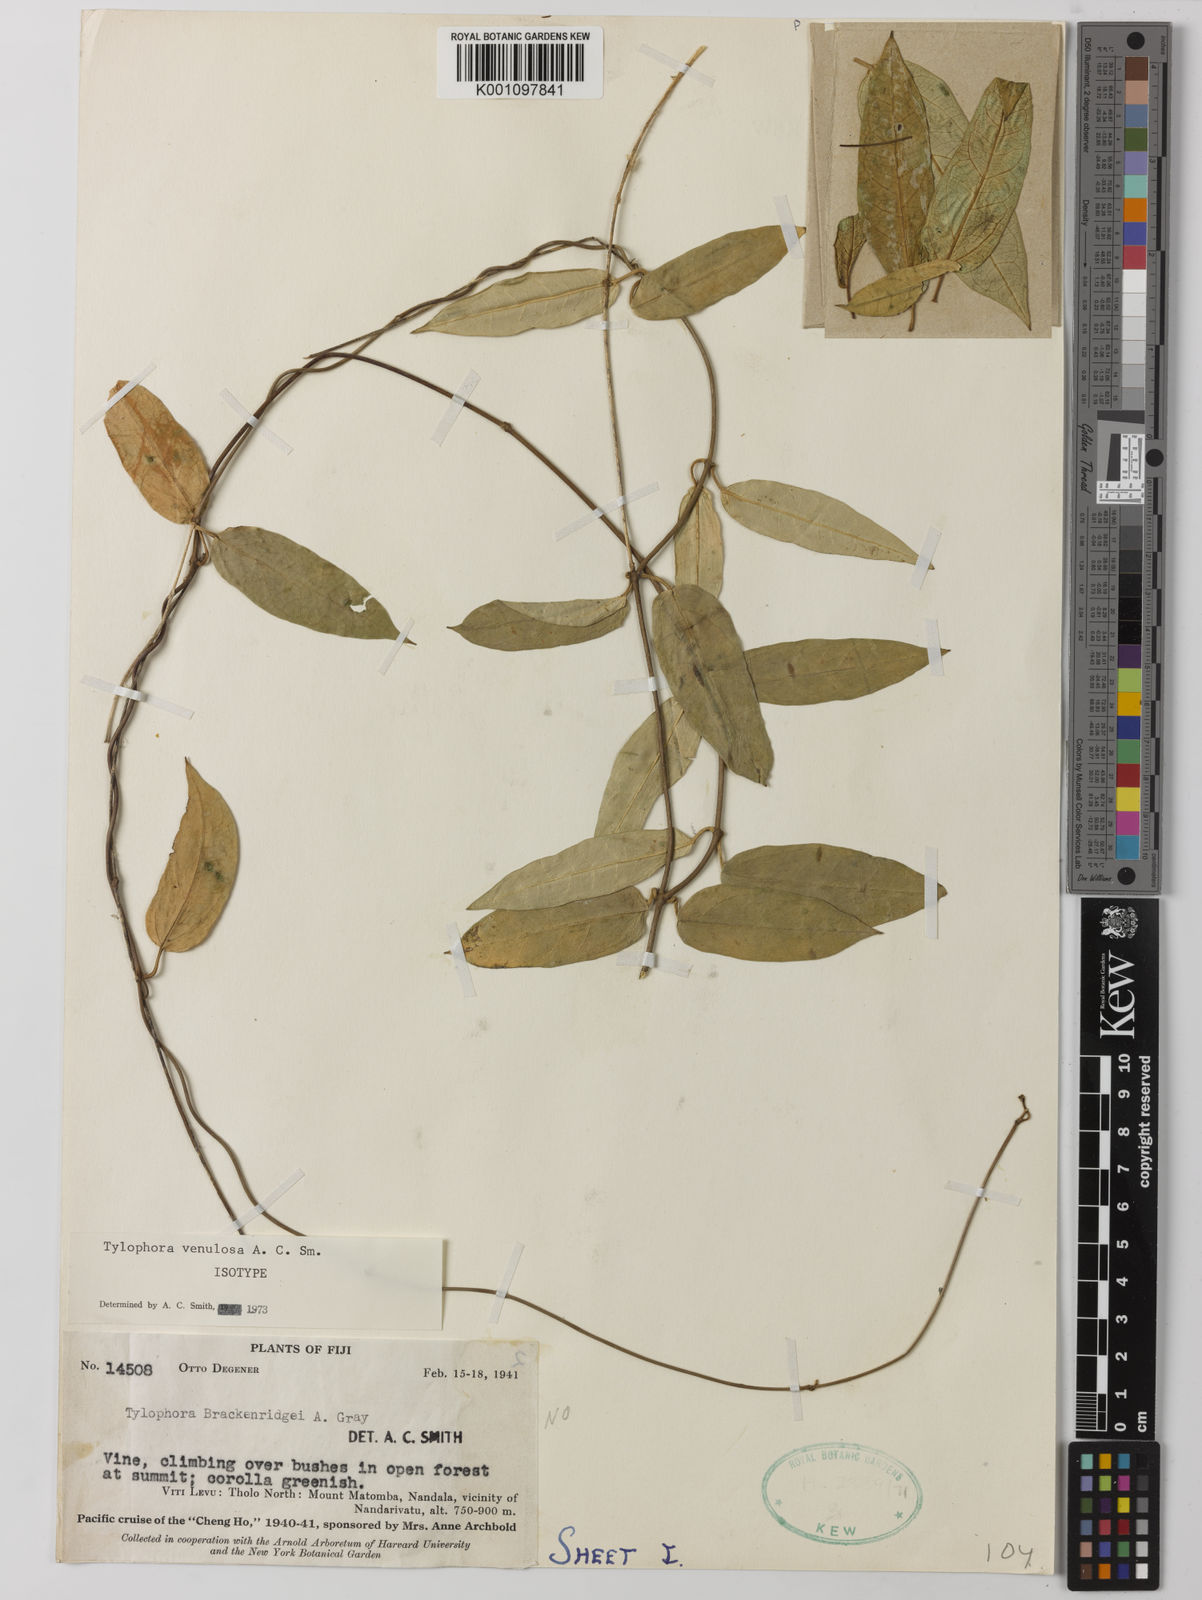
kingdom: Plantae
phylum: Tracheophyta
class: Magnoliopsida
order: Gentianales
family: Apocynaceae
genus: Sarcolobus
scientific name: Sarcolobus venulosus
